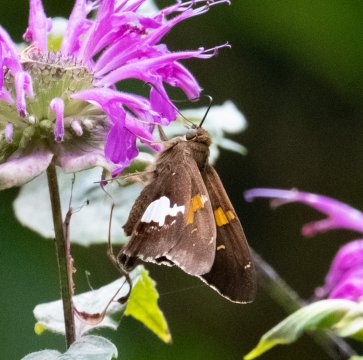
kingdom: Animalia
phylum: Arthropoda
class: Insecta
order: Lepidoptera
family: Hesperiidae
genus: Epargyreus
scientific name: Epargyreus clarus
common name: Silver-spotted Skipper
